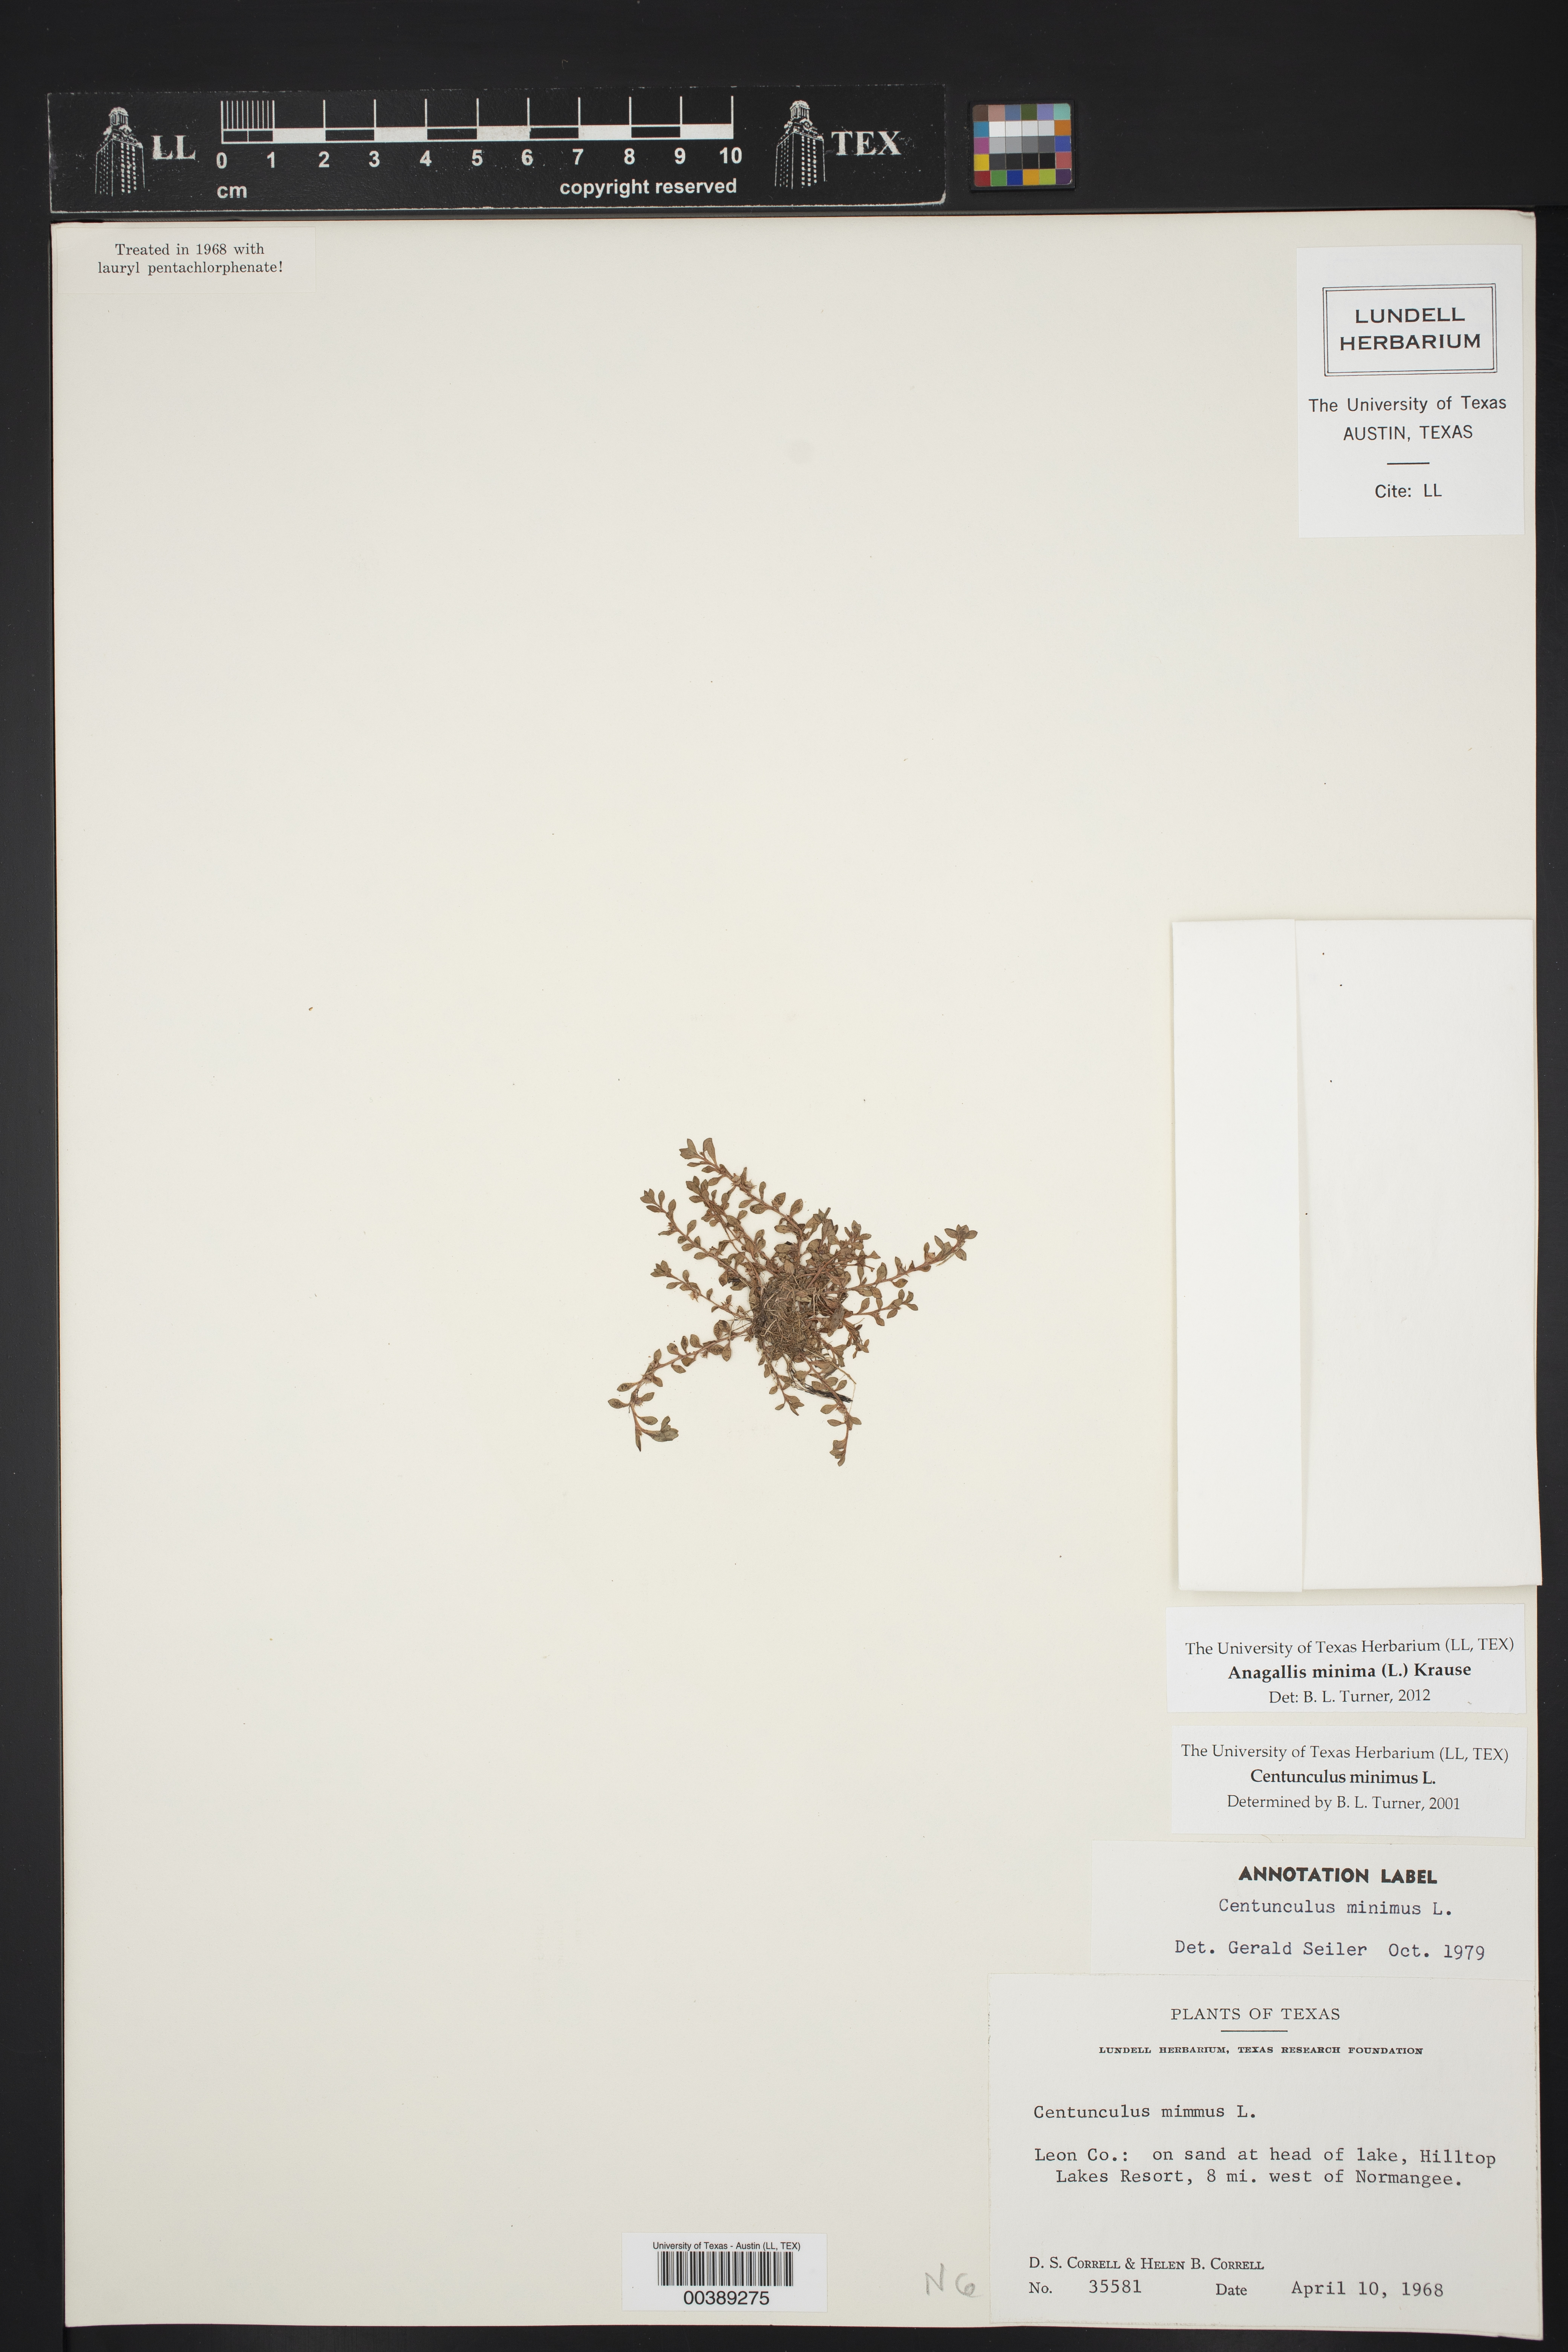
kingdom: Plantae
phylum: Tracheophyta
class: Magnoliopsida
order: Ericales
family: Primulaceae
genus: Lysimachia
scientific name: Lysimachia minima
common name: Chaffweed
